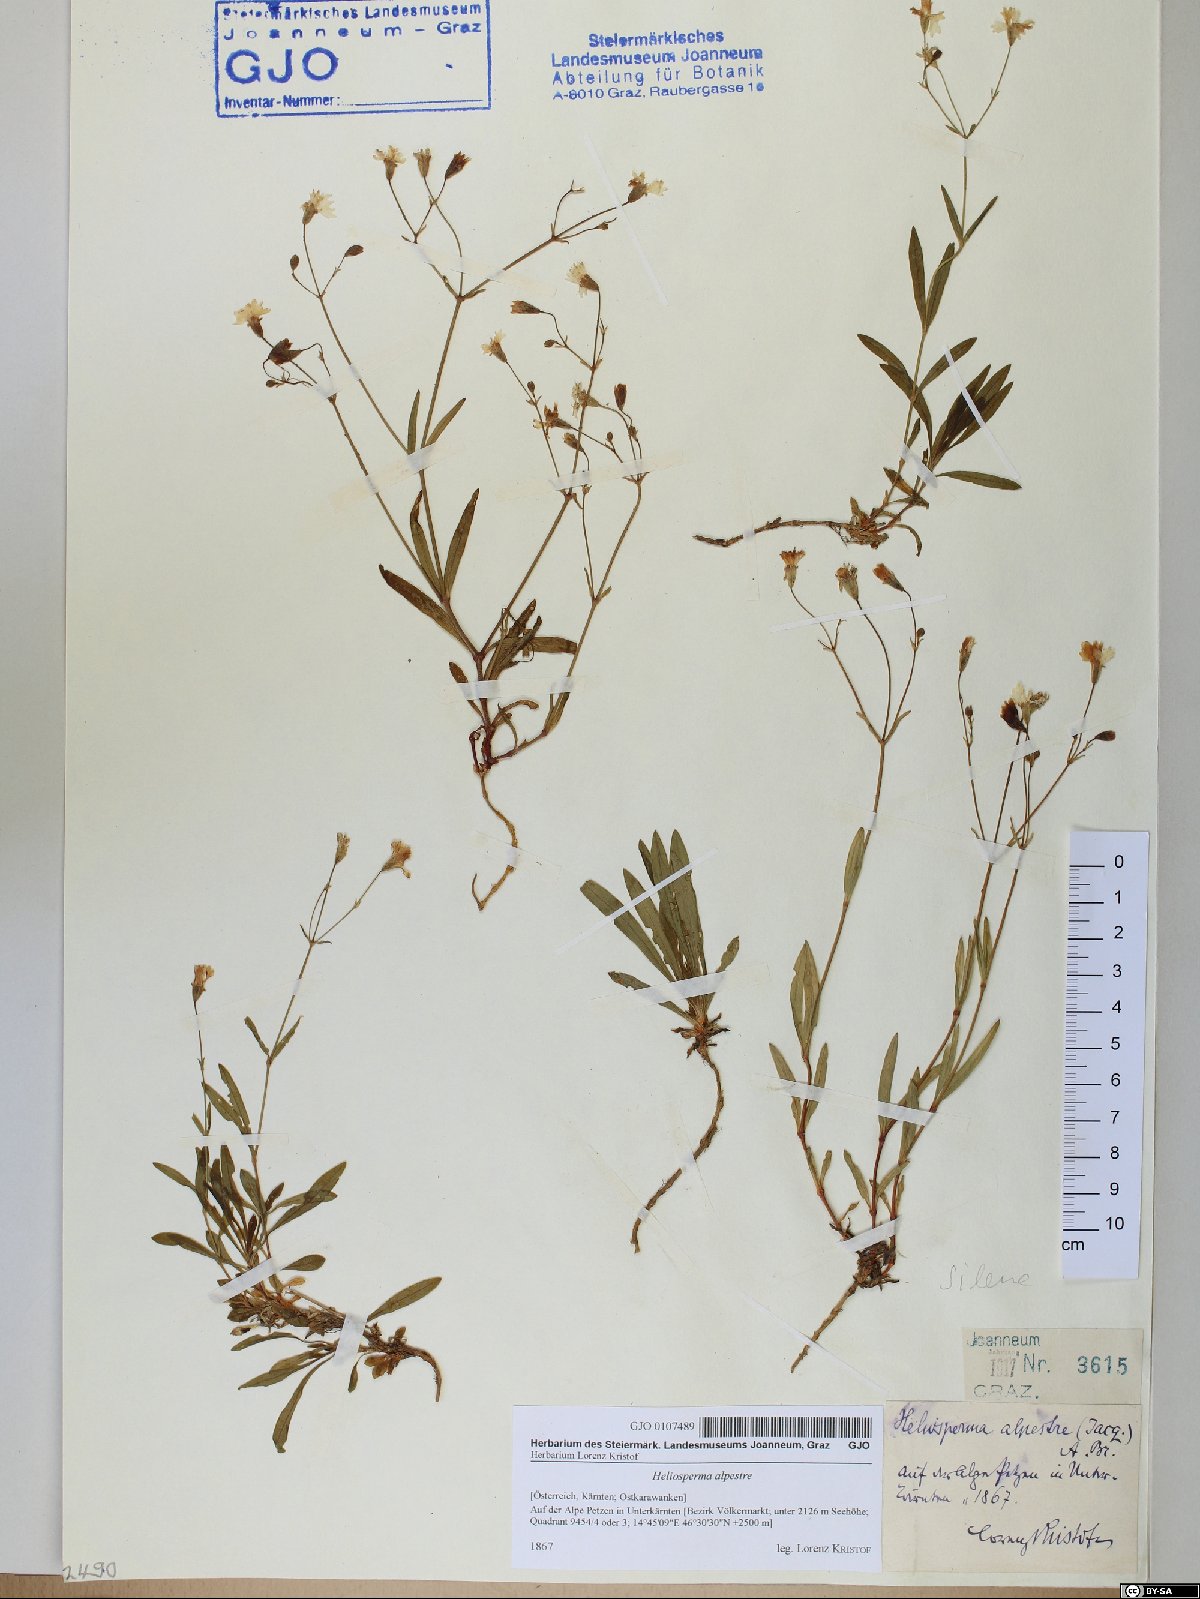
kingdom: Plantae
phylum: Tracheophyta
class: Magnoliopsida
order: Caryophyllales
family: Caryophyllaceae
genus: Heliosperma
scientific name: Heliosperma alpestre
